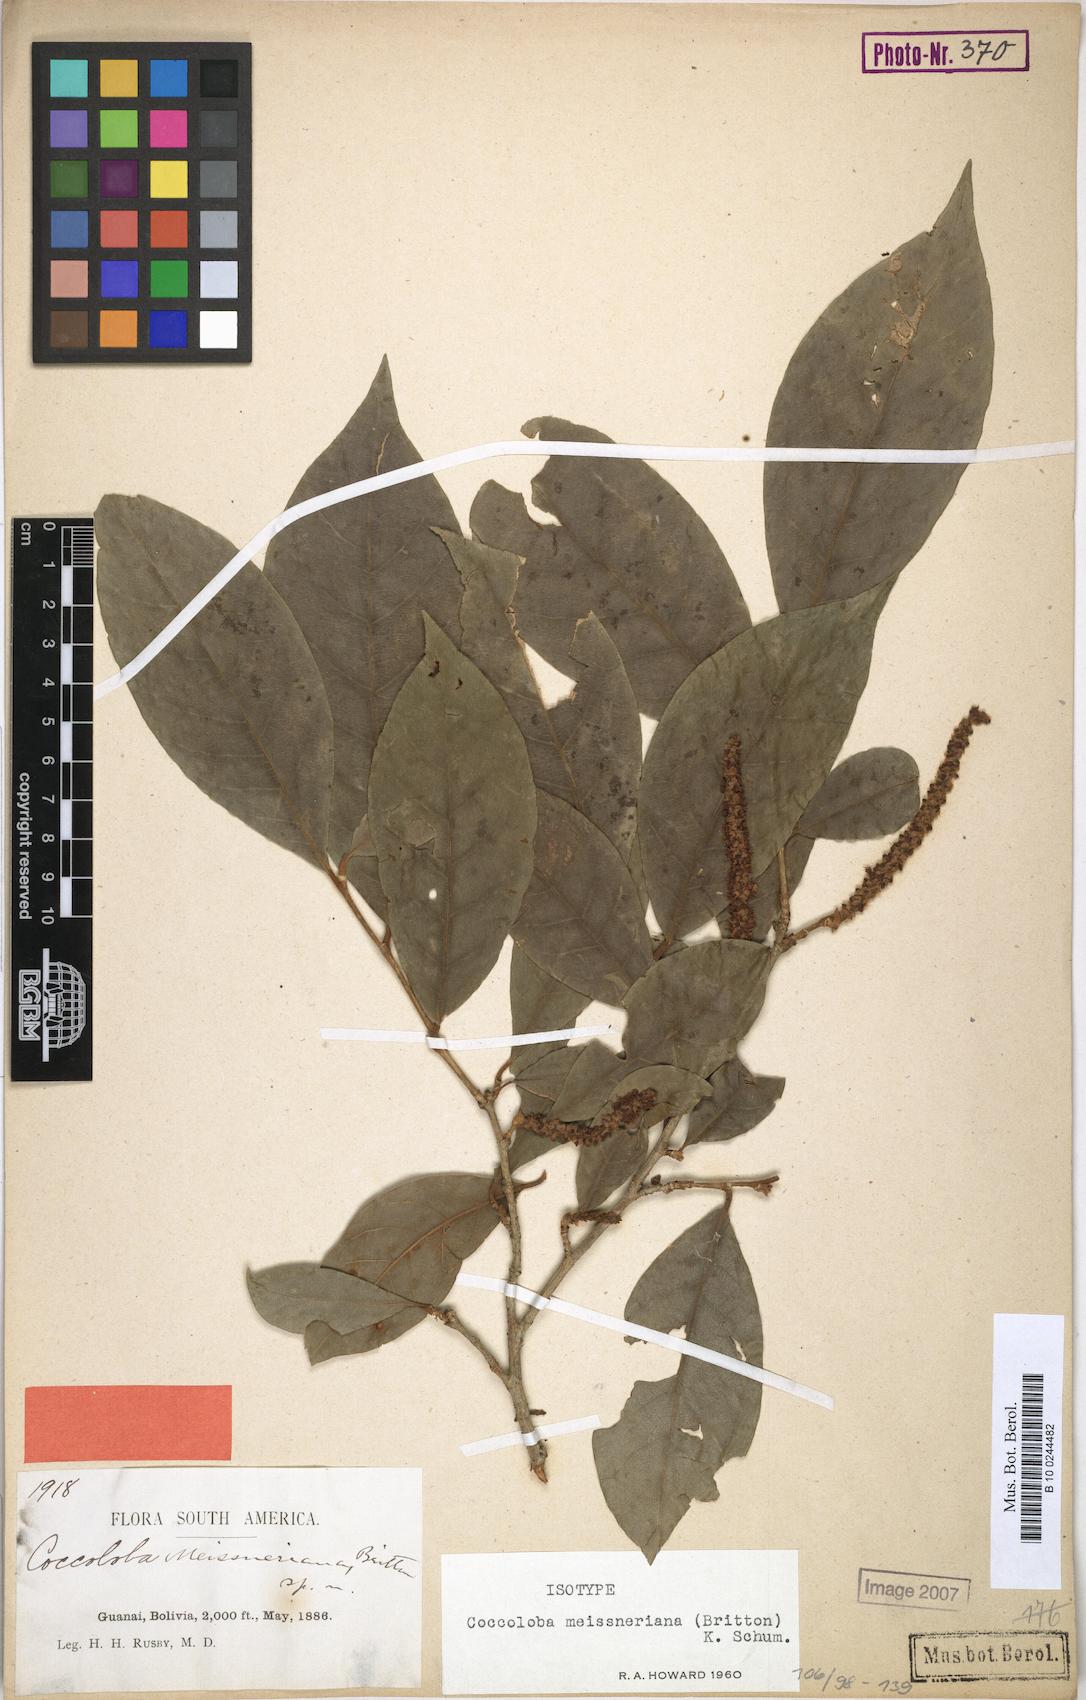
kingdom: Plantae
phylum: Tracheophyta
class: Magnoliopsida
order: Caryophyllales
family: Polygonaceae
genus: Coccoloba
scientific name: Coccoloba meissneriana
